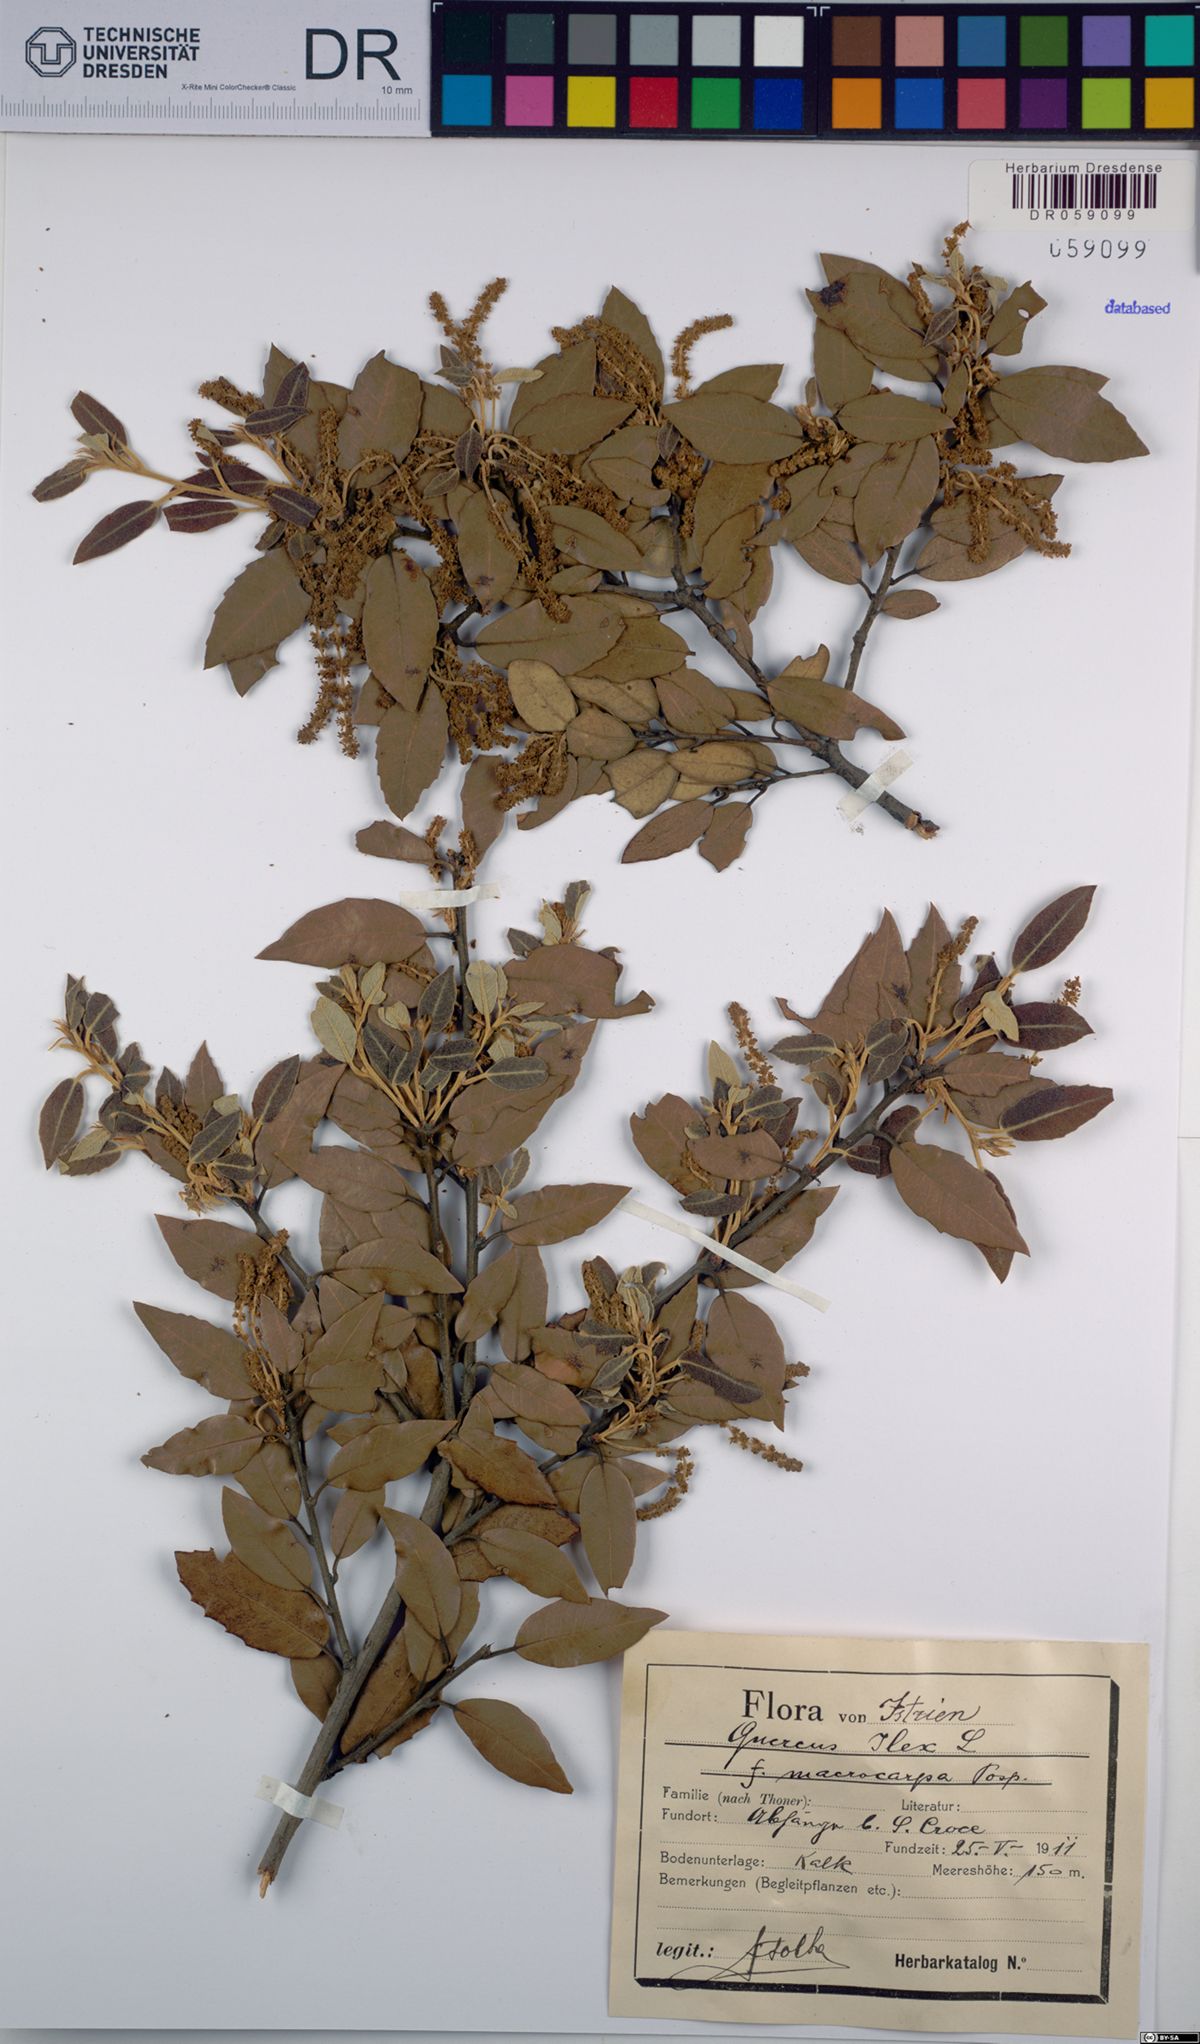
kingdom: Plantae
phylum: Tracheophyta
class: Magnoliopsida
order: Fagales
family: Fagaceae
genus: Quercus
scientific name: Quercus ilex
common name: Evergreen oak
